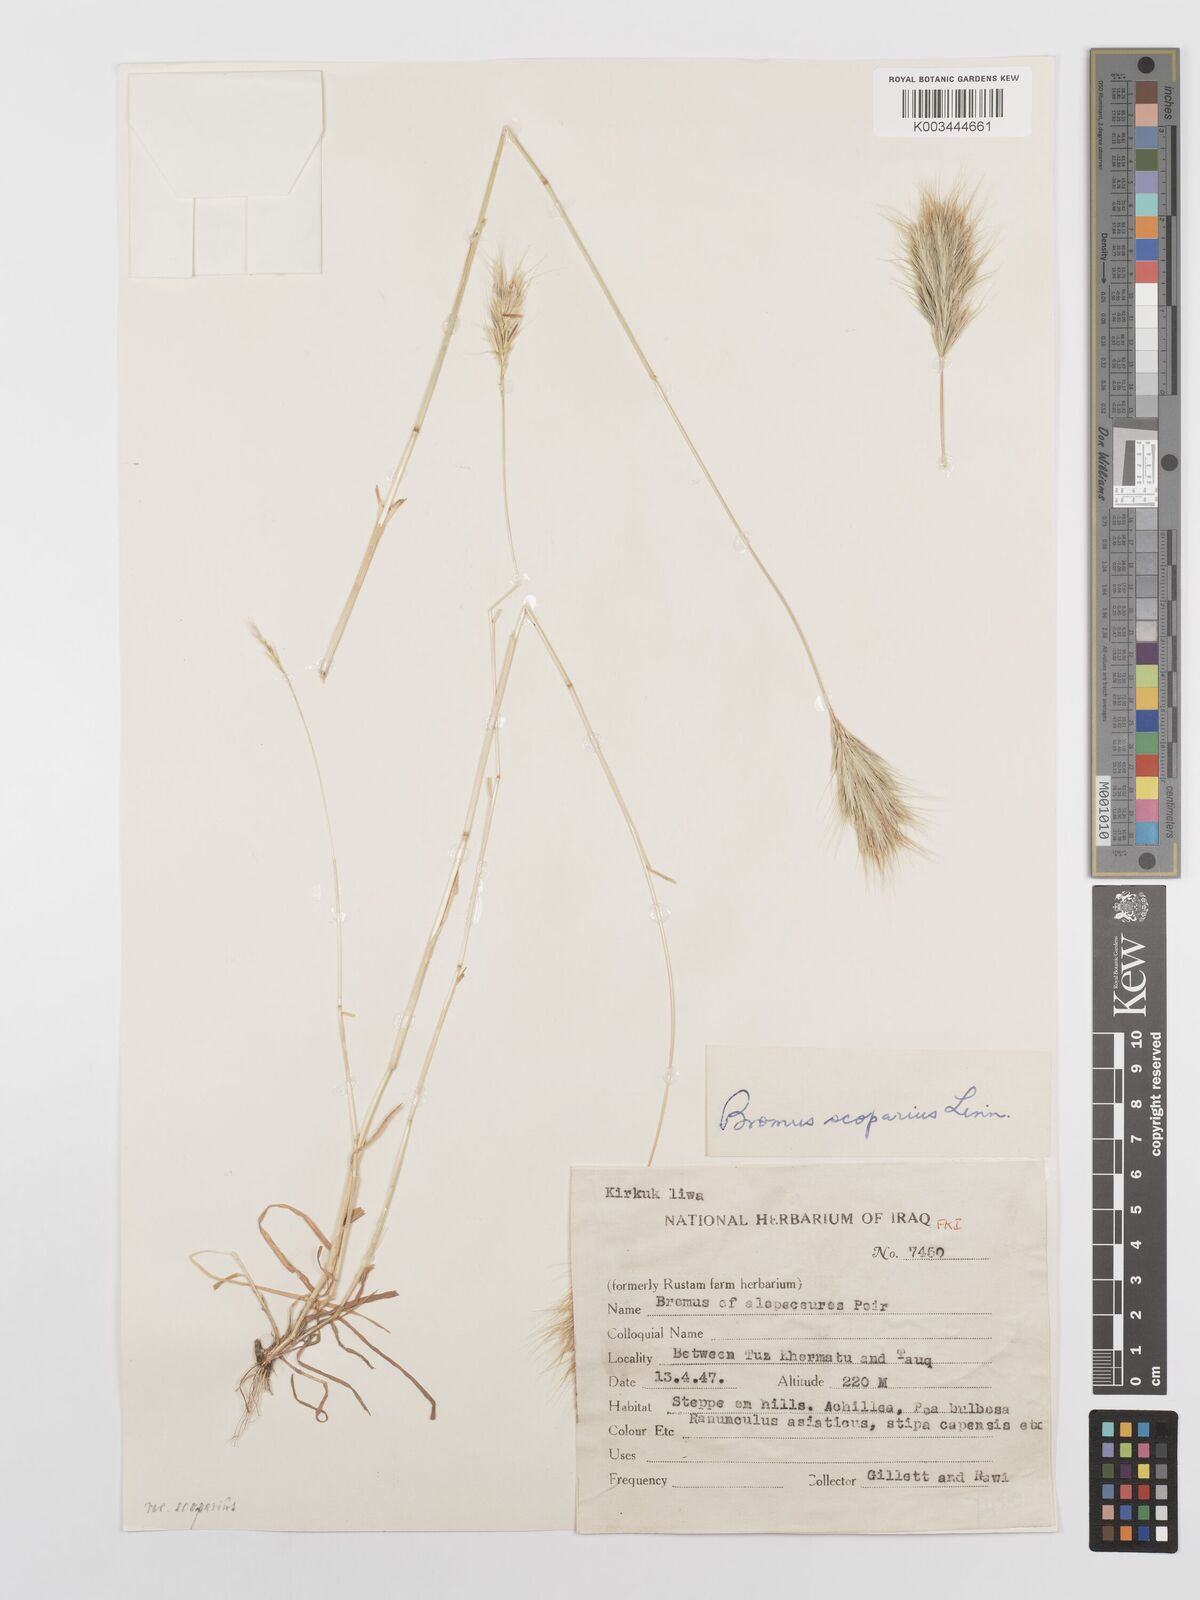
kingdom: Plantae
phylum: Tracheophyta
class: Liliopsida
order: Poales
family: Poaceae
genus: Bromus
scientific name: Bromus scoparius
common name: Broom brome
